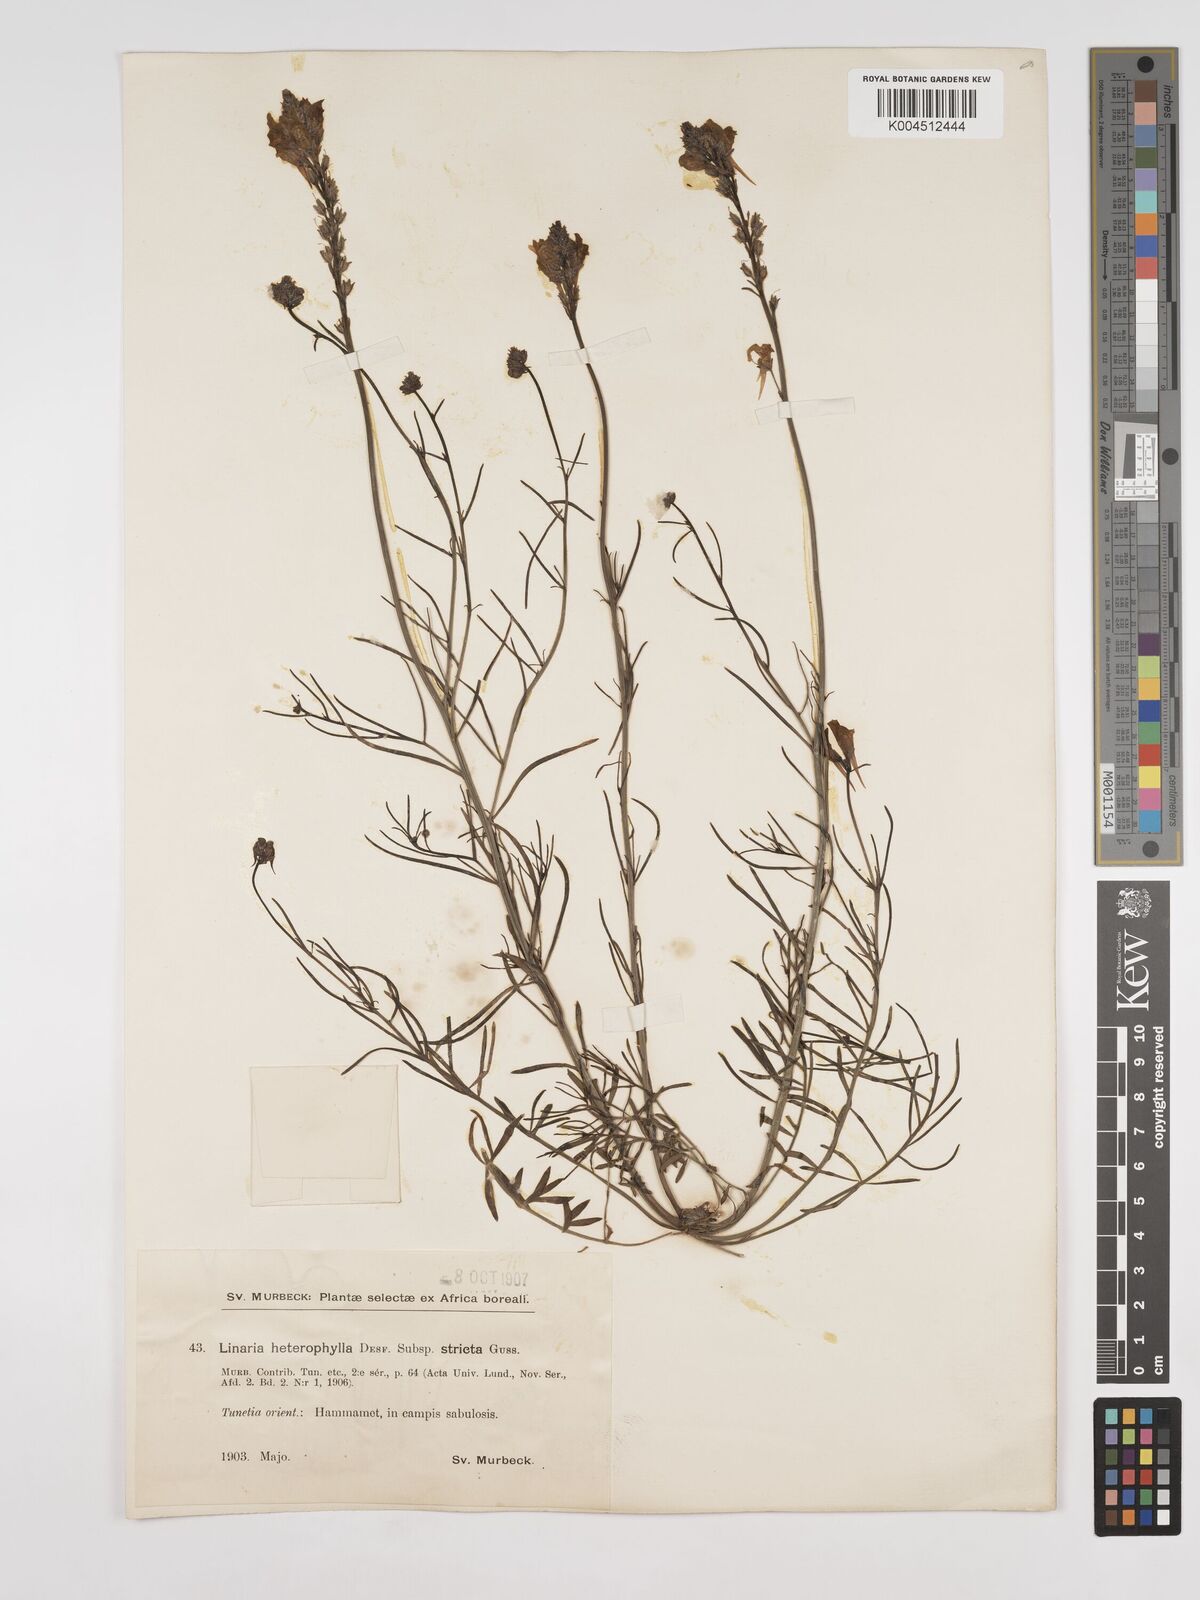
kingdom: Plantae
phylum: Tracheophyta
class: Magnoliopsida
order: Lamiales
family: Plantaginaceae
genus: Linaria
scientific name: Linaria multicaulis
